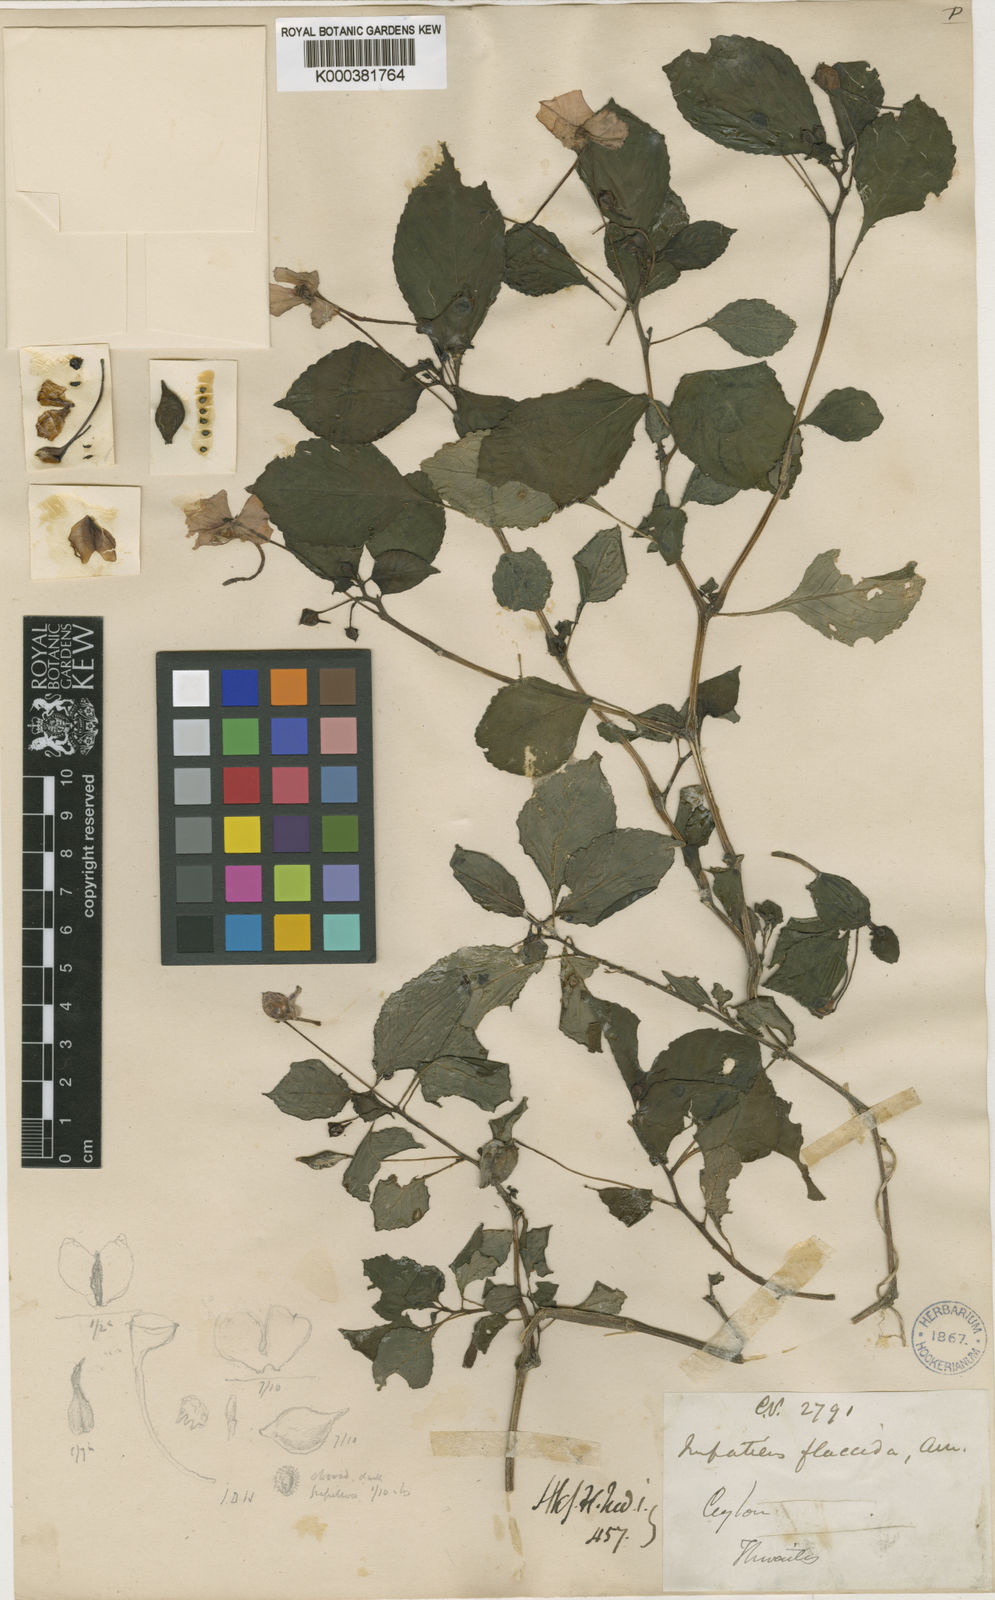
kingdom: Plantae
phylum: Tracheophyta
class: Magnoliopsida
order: Ericales
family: Balsaminaceae
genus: Impatiens
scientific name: Impatiens flaccida
